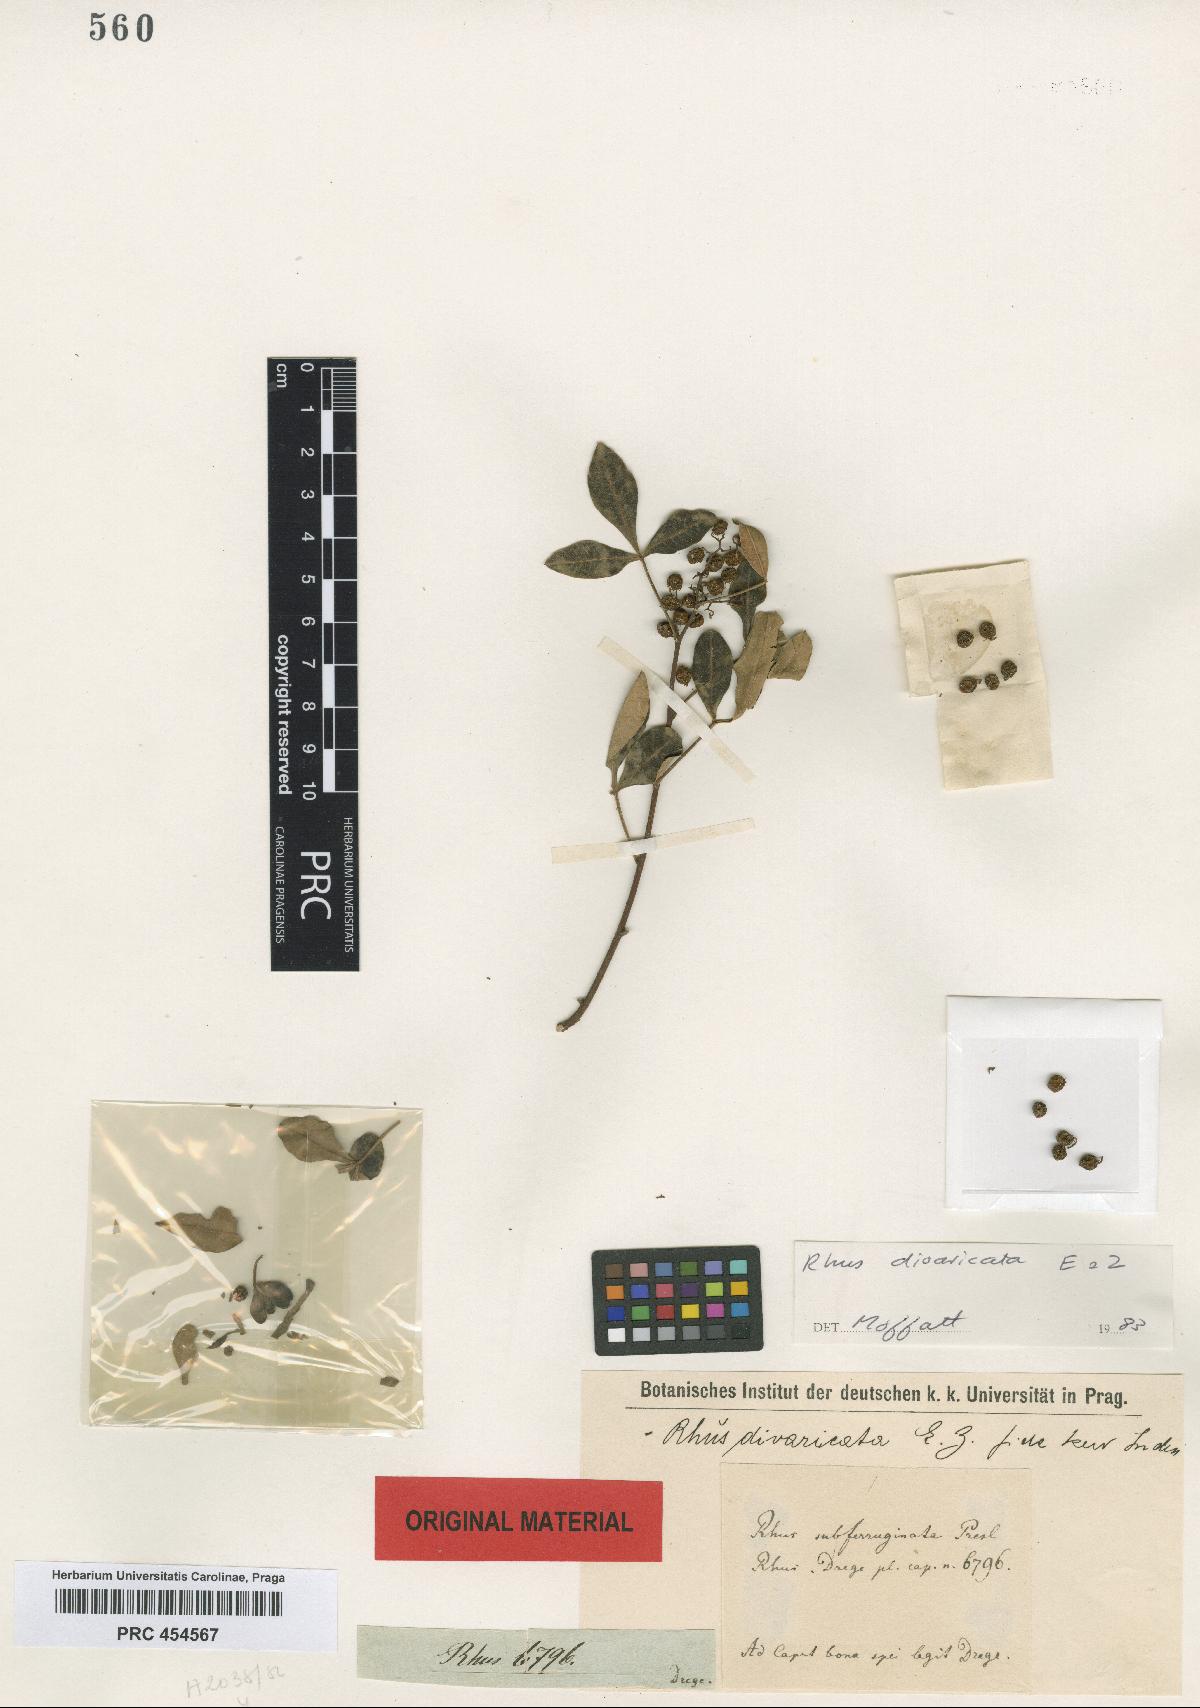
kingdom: Plantae
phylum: Tracheophyta
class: Magnoliopsida
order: Sapindales
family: Anacardiaceae
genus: Searsia
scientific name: Searsia divaricata
